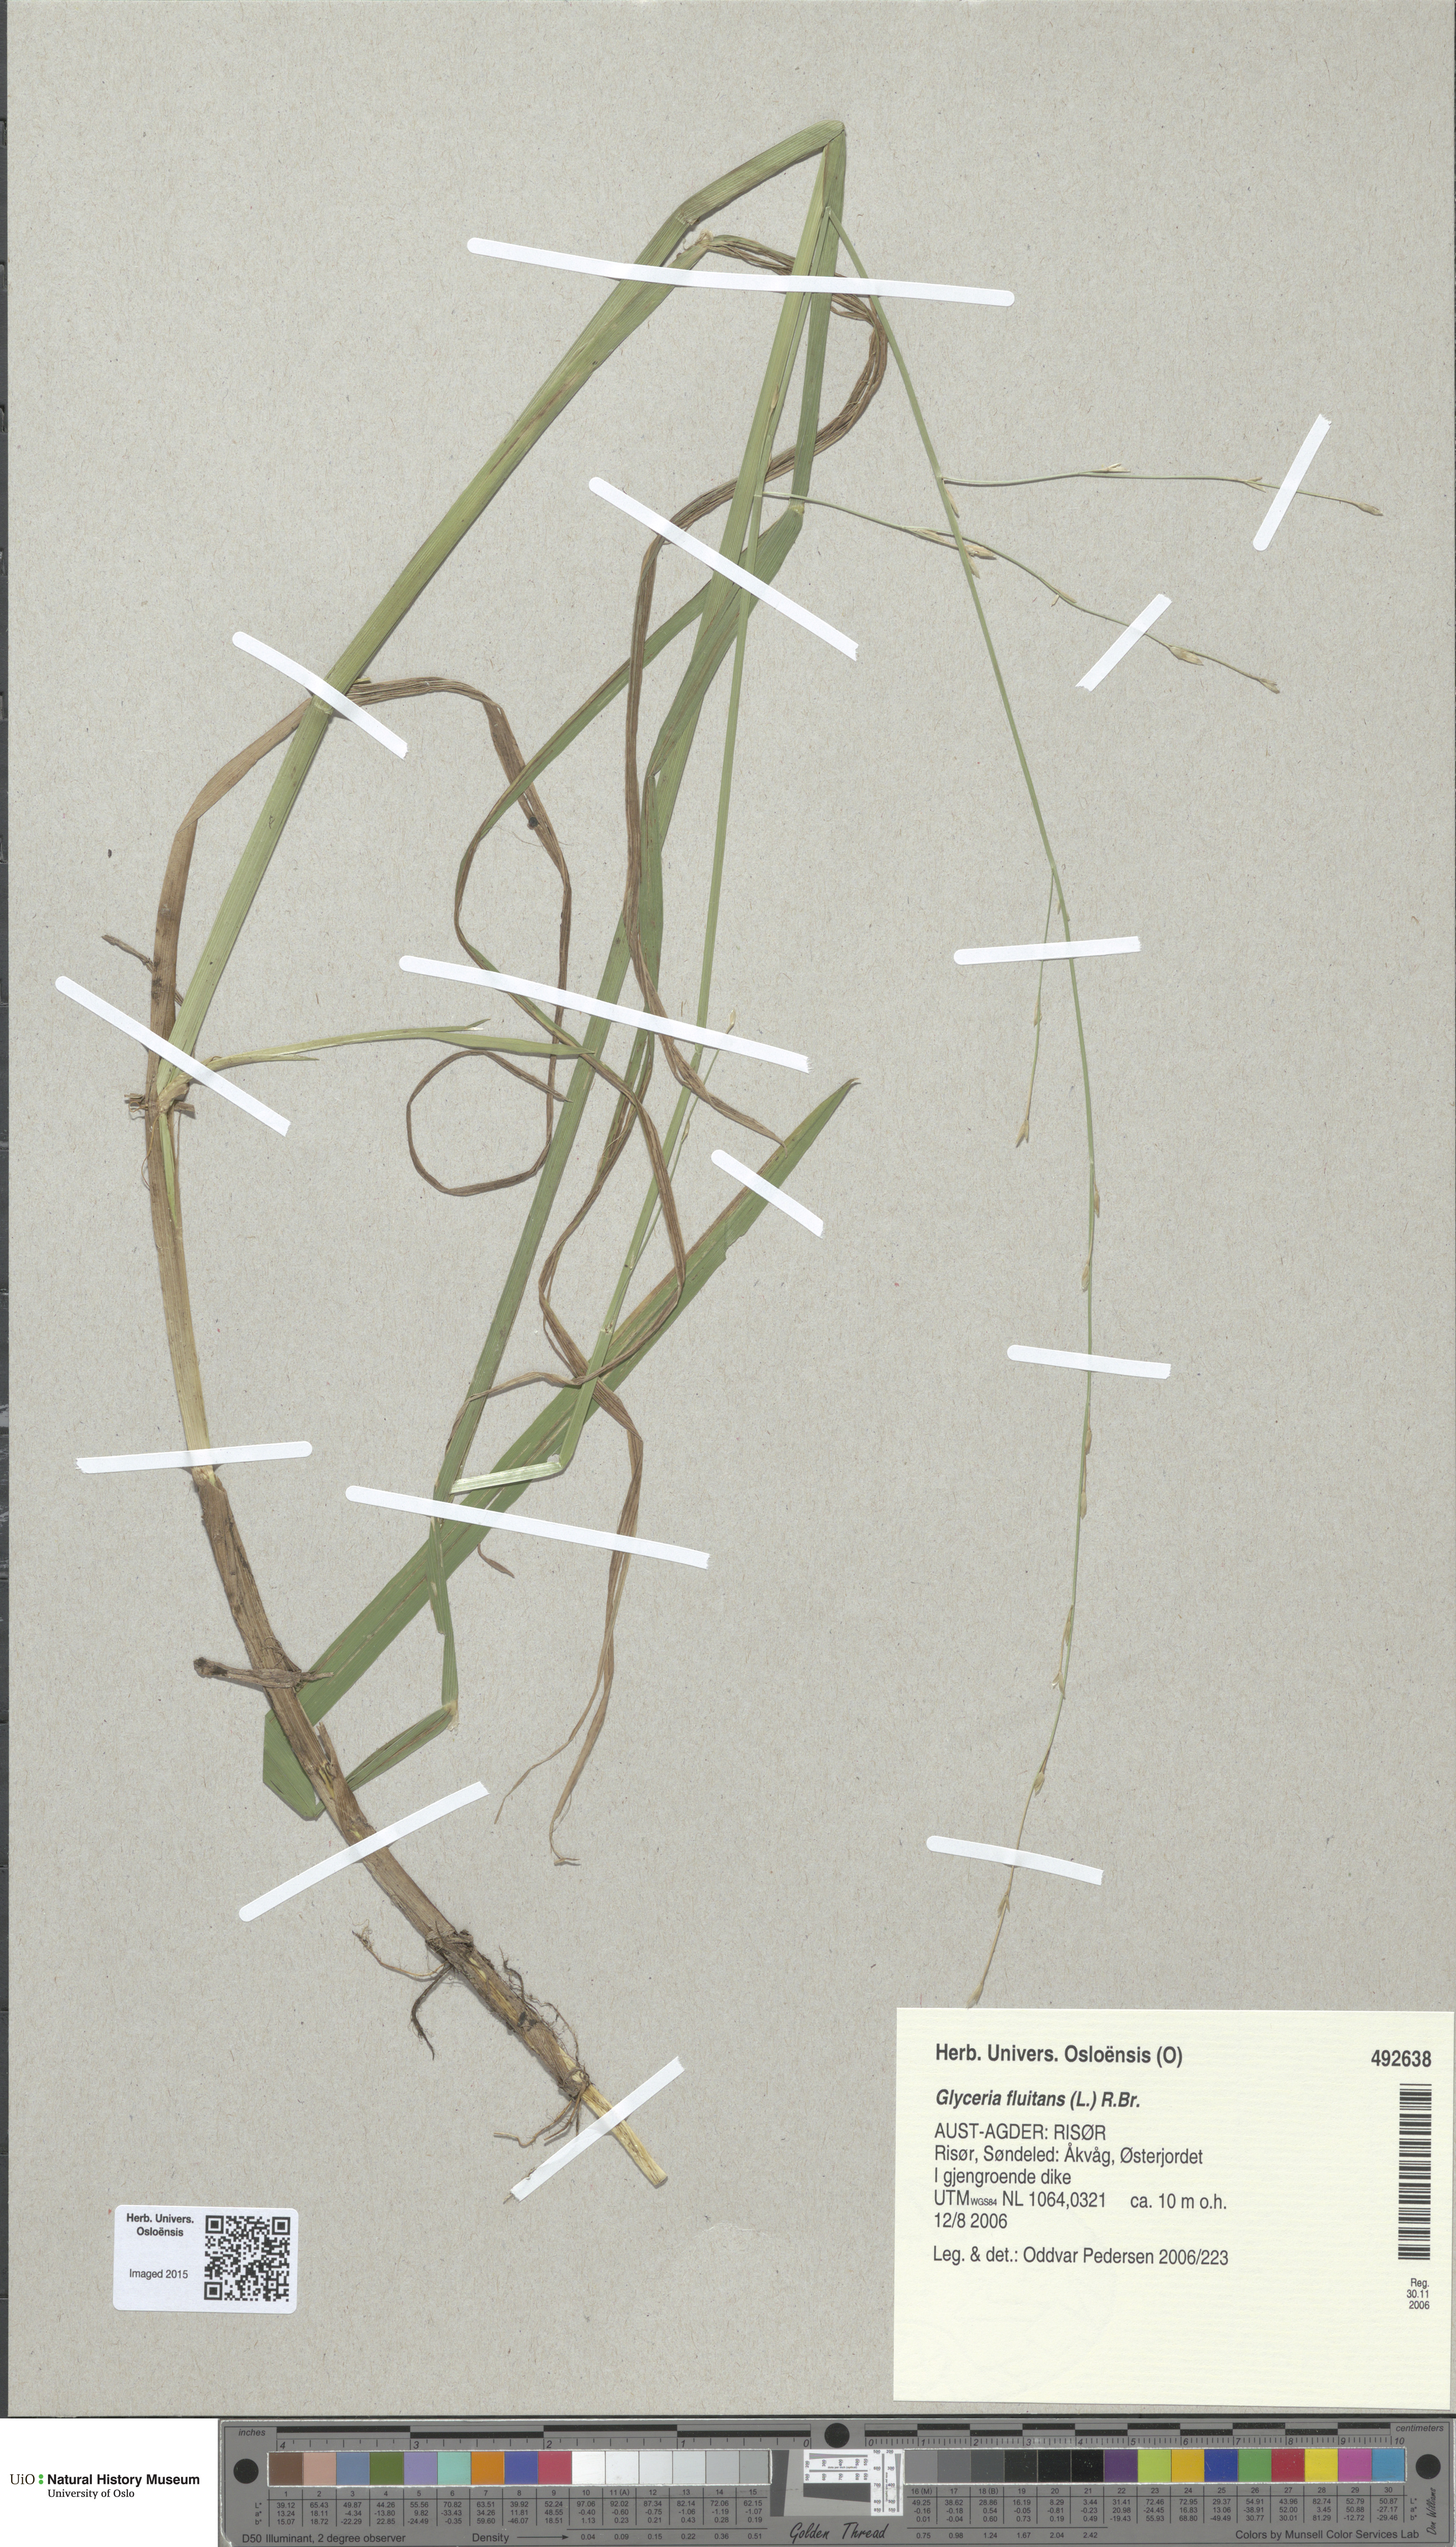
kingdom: Plantae
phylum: Tracheophyta
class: Liliopsida
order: Poales
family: Poaceae
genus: Glyceria
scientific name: Glyceria fluitans
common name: Floating sweet-grass
